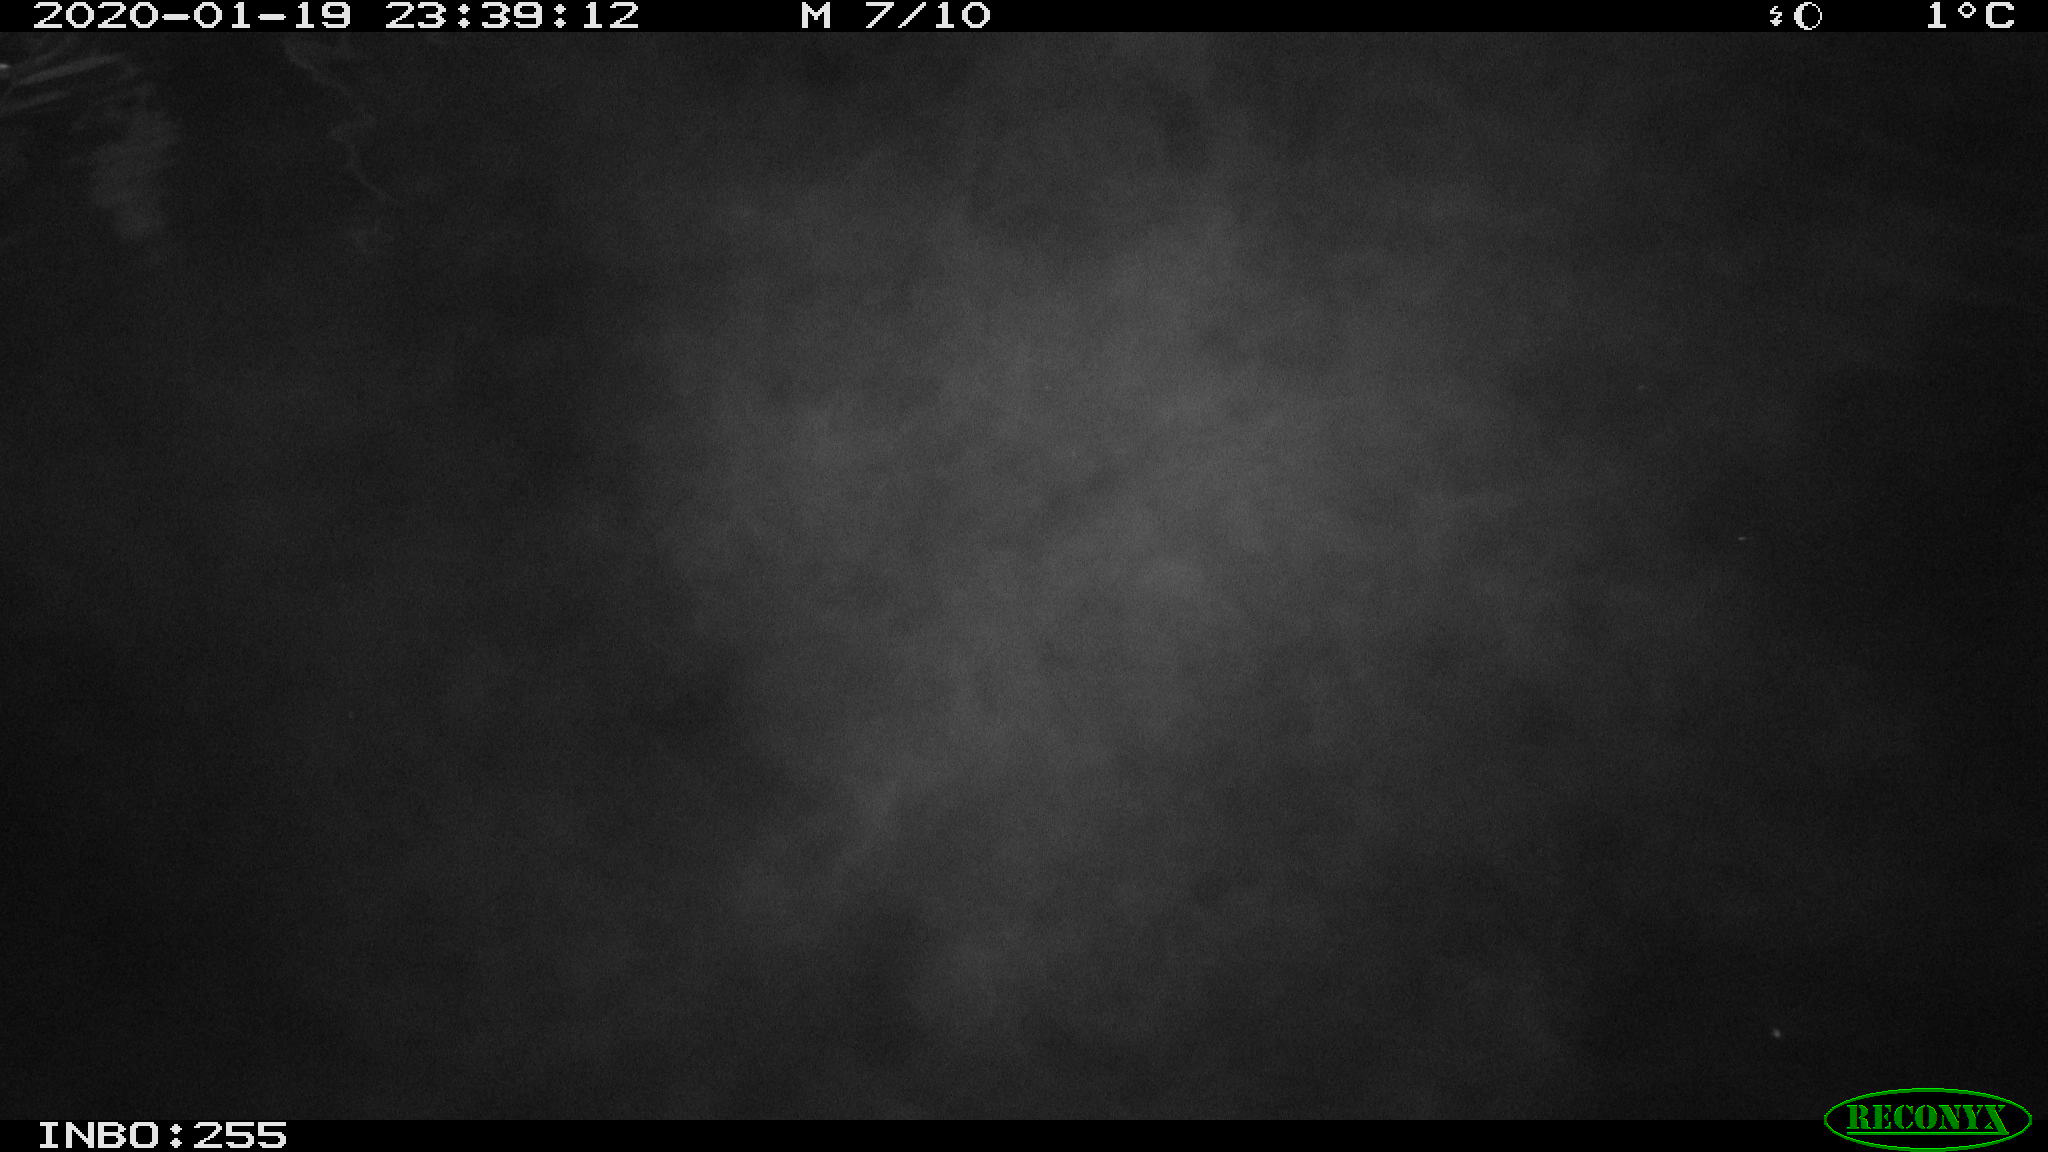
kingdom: Animalia
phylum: Chordata
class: Mammalia
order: Rodentia
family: Cricetidae
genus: Ondatra
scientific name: Ondatra zibethicus
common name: Muskrat
